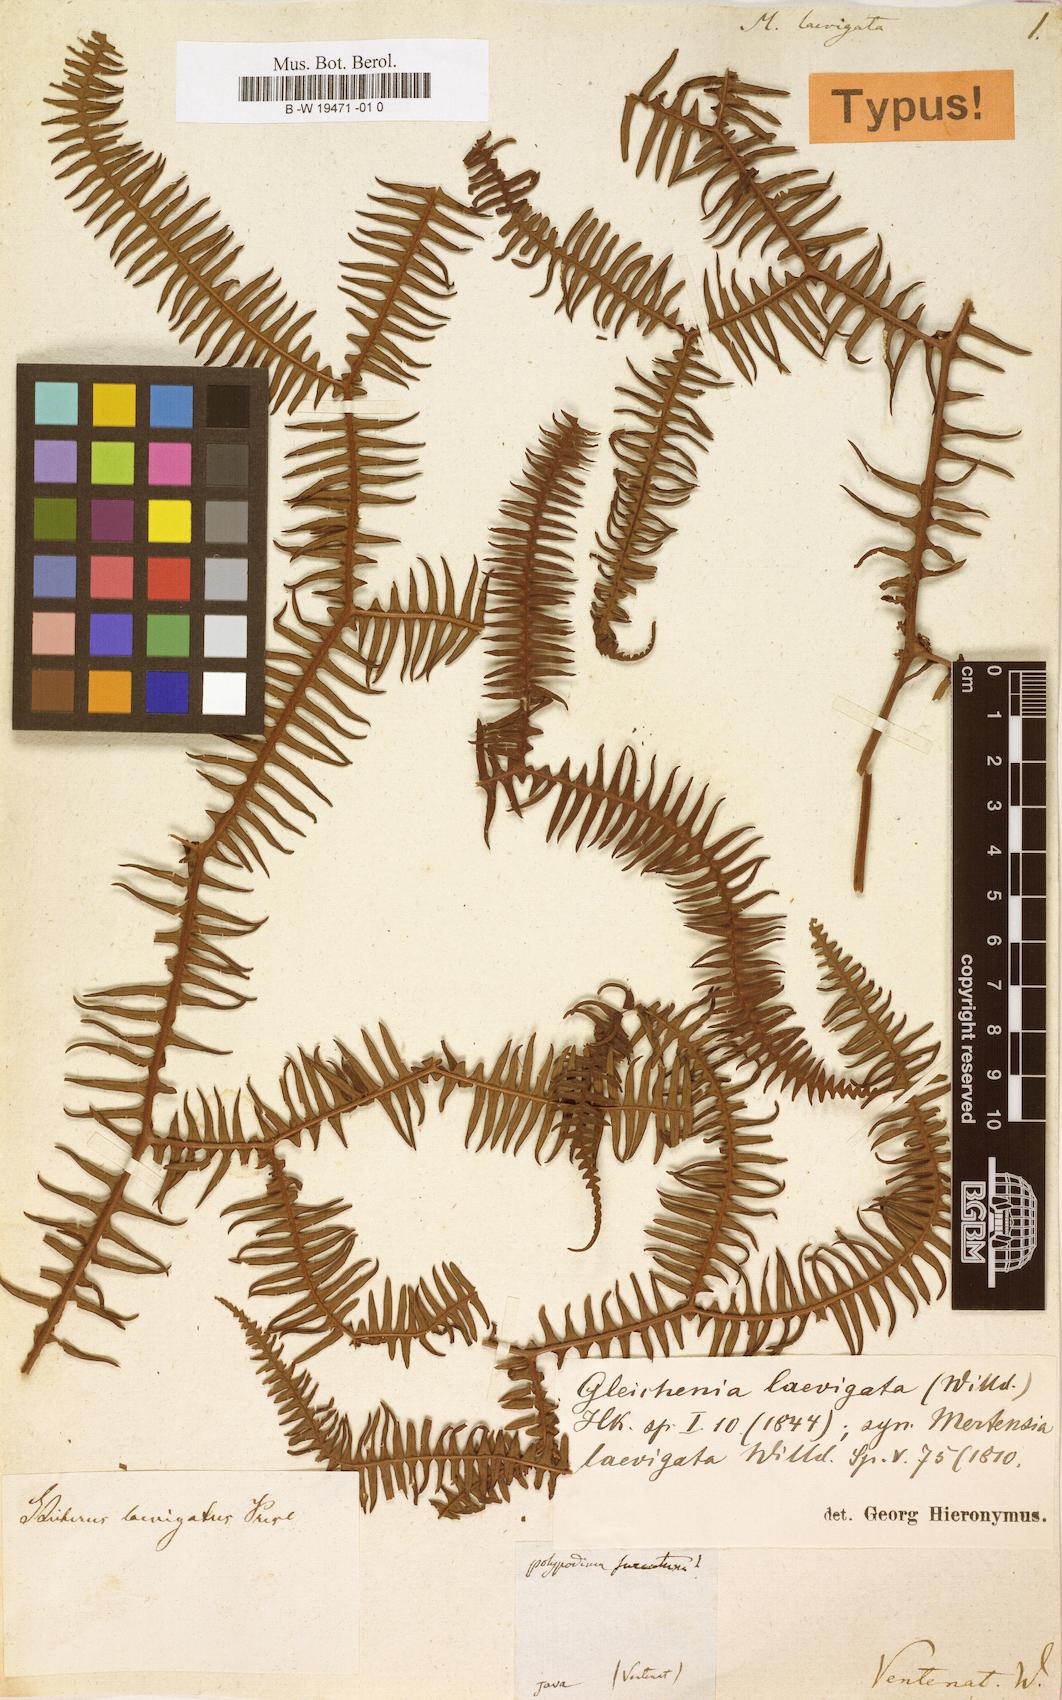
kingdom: Plantae
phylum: Tracheophyta
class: Polypodiopsida
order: Gleicheniales
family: Gleicheniaceae
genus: Sticherus
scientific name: Sticherus truncatus
